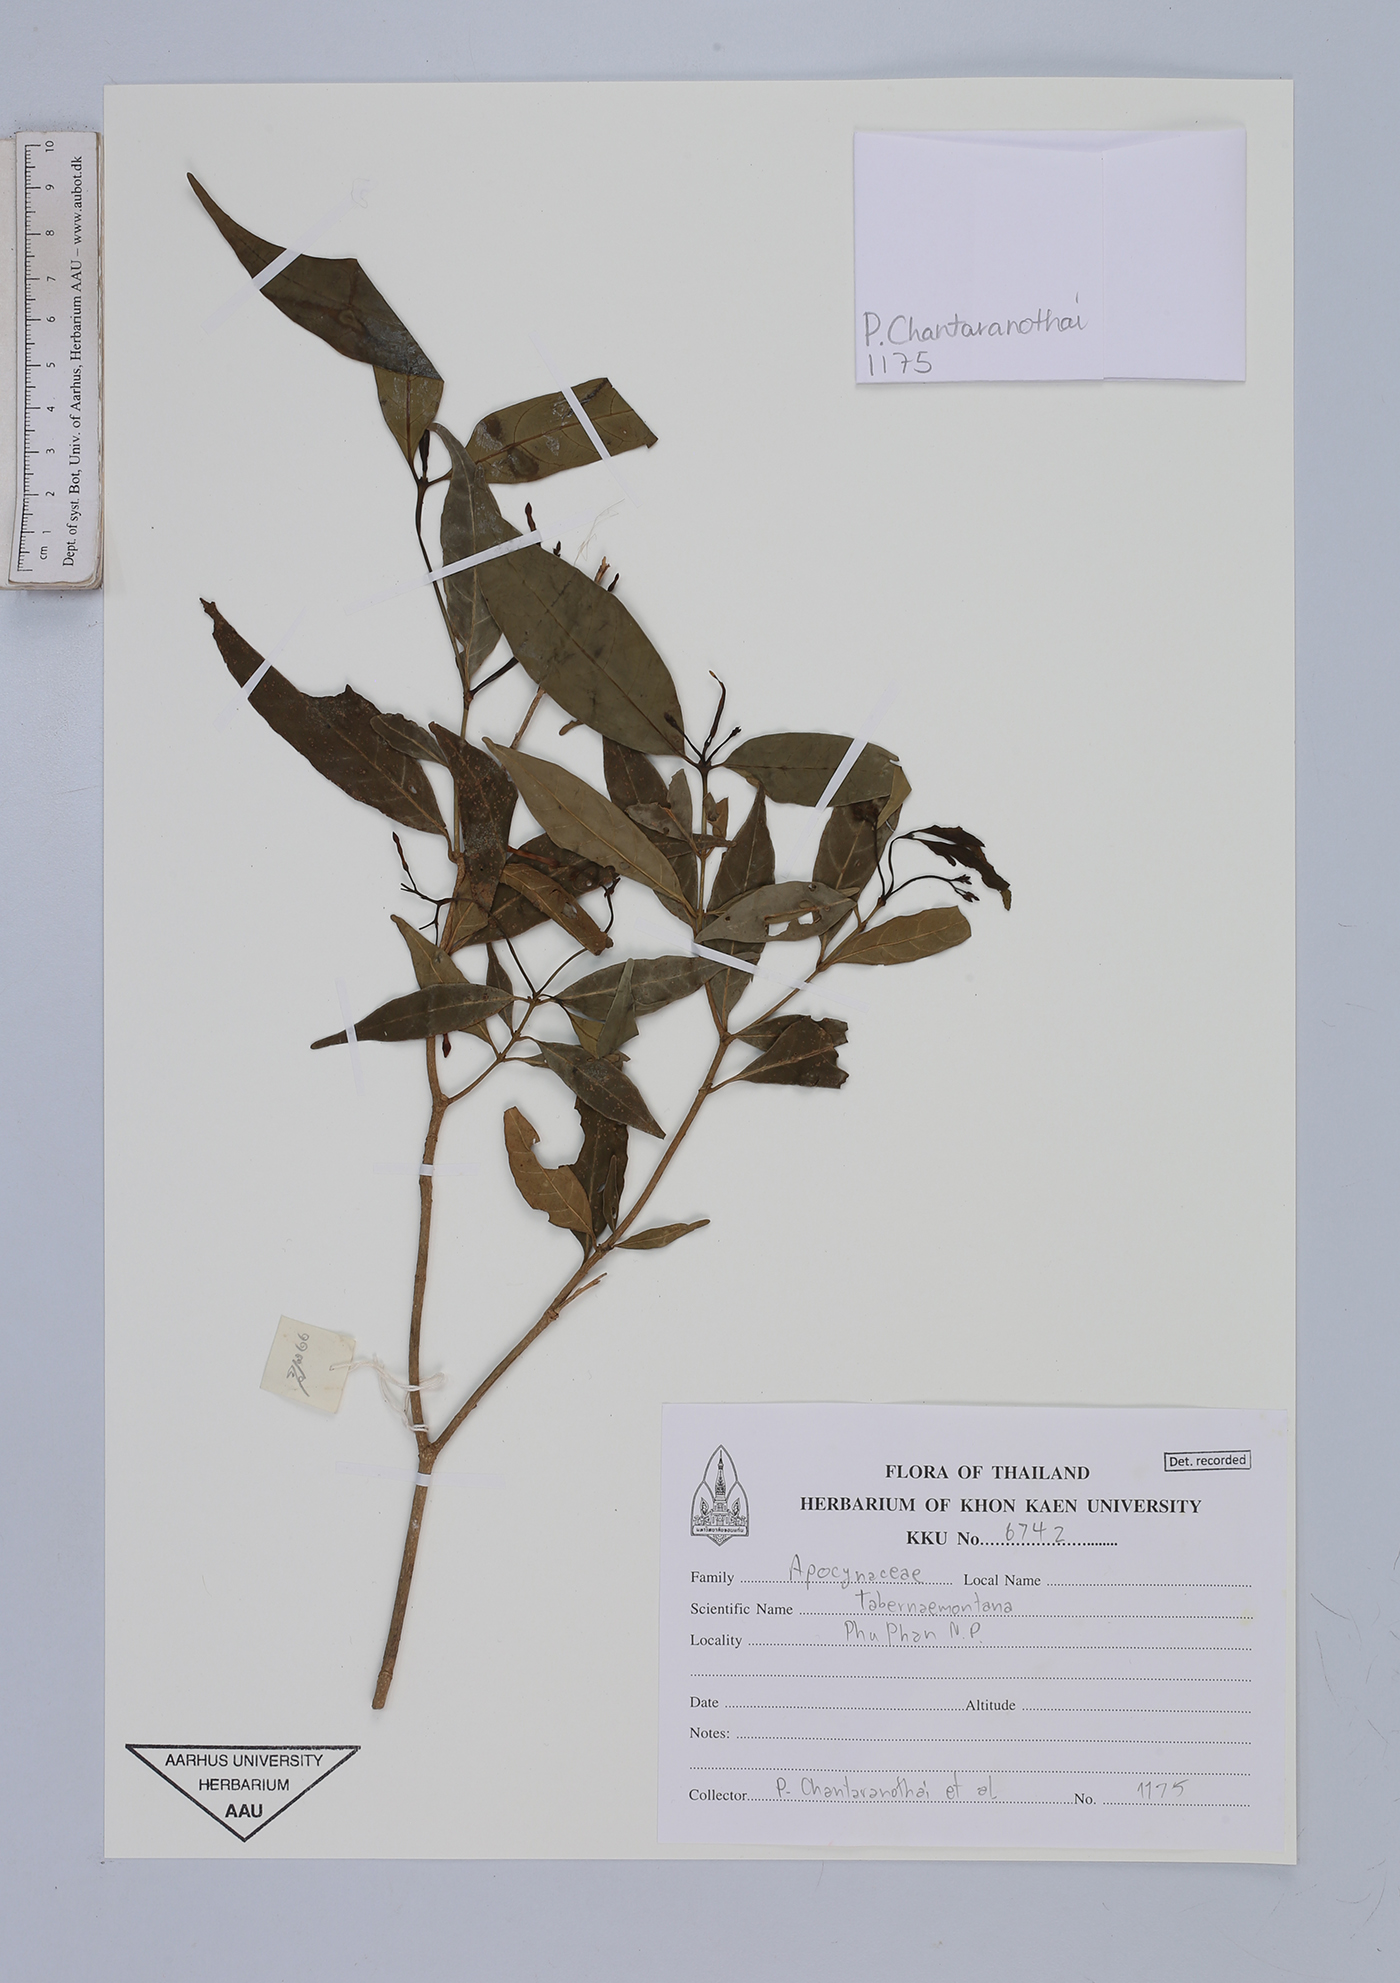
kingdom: Plantae
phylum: Tracheophyta
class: Magnoliopsida
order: Gentianales
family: Apocynaceae
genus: Tabernaemontana
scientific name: Tabernaemontana
